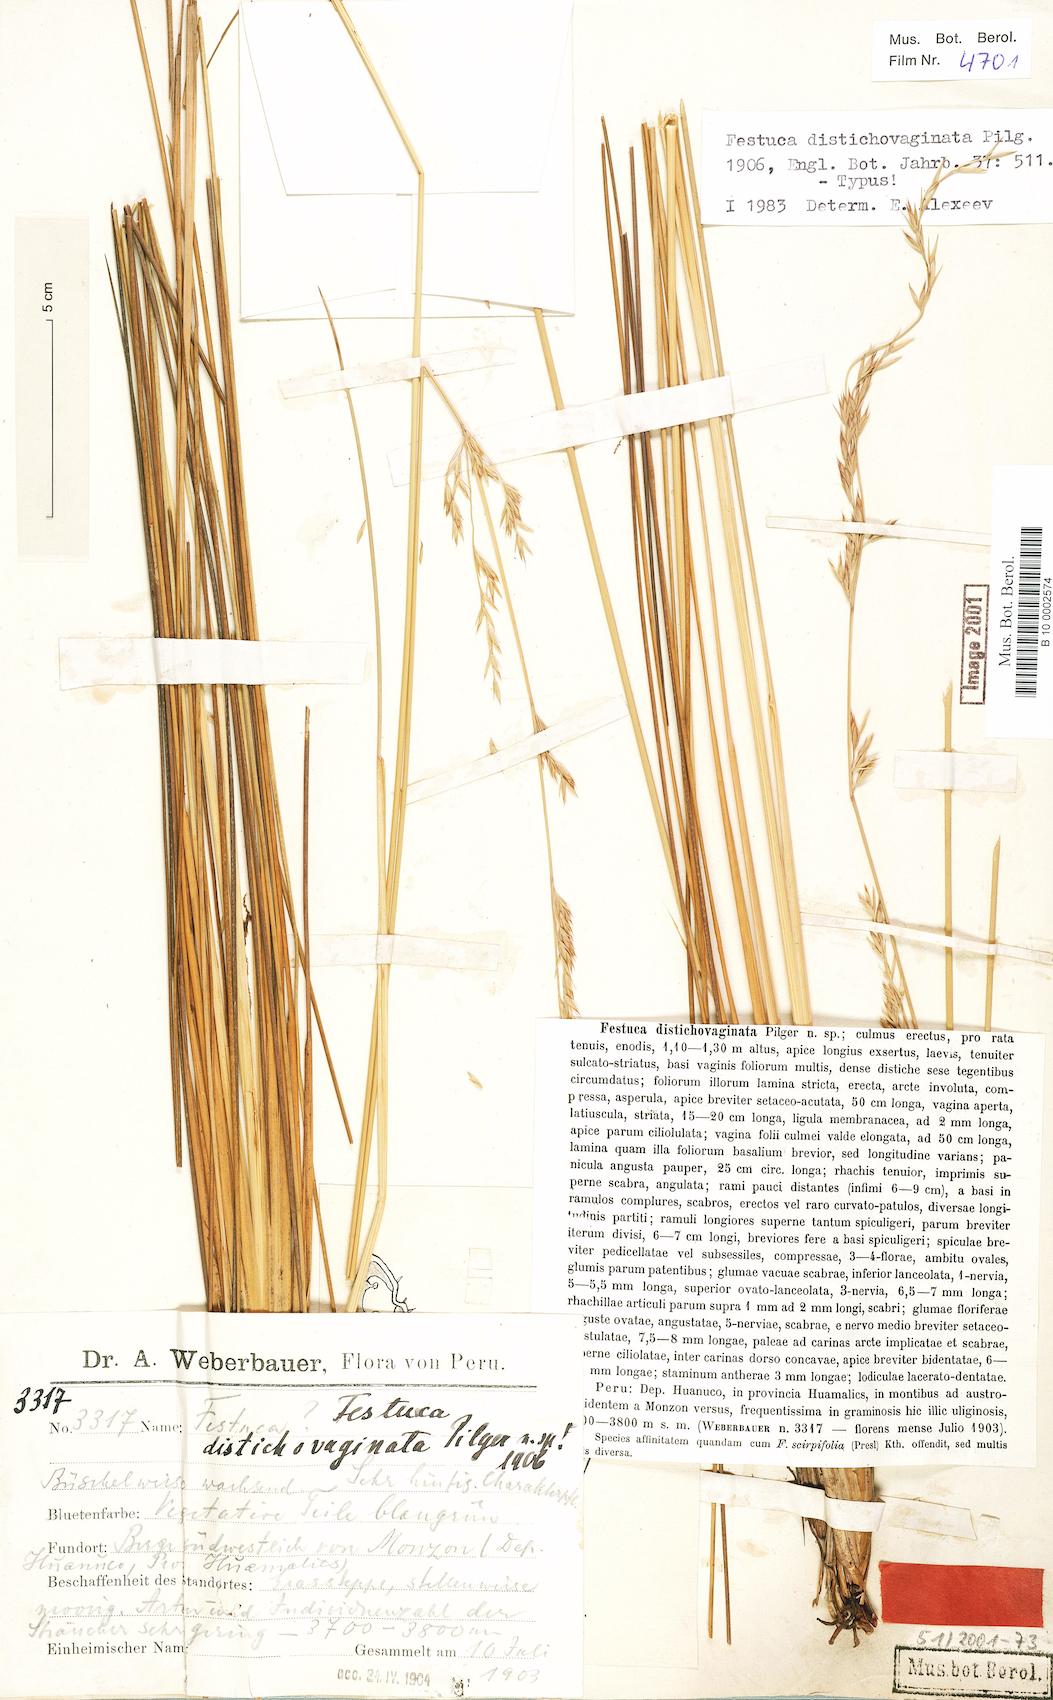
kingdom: Plantae
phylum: Tracheophyta
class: Liliopsida
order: Poales
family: Poaceae
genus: Festuca
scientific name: Festuca distichovaginata
